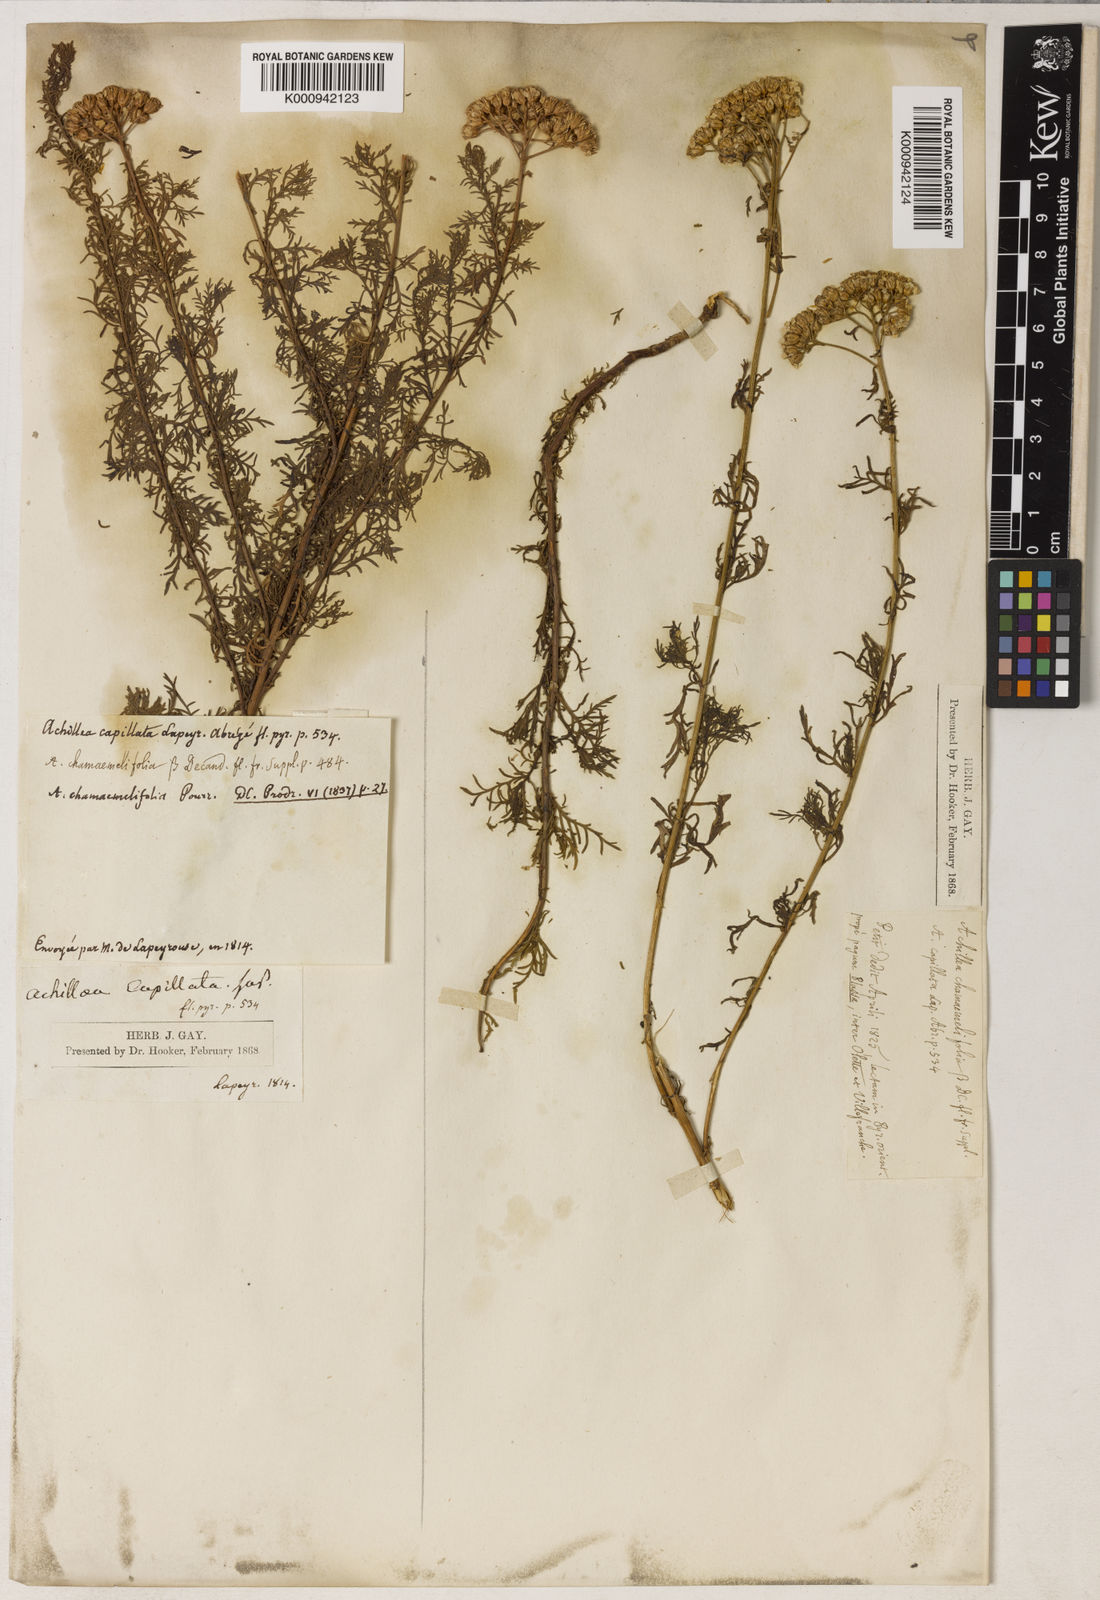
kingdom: Plantae
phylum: Tracheophyta
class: Magnoliopsida
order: Asterales
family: Asteraceae
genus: Achillea
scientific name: Achillea chamaemelifolia
